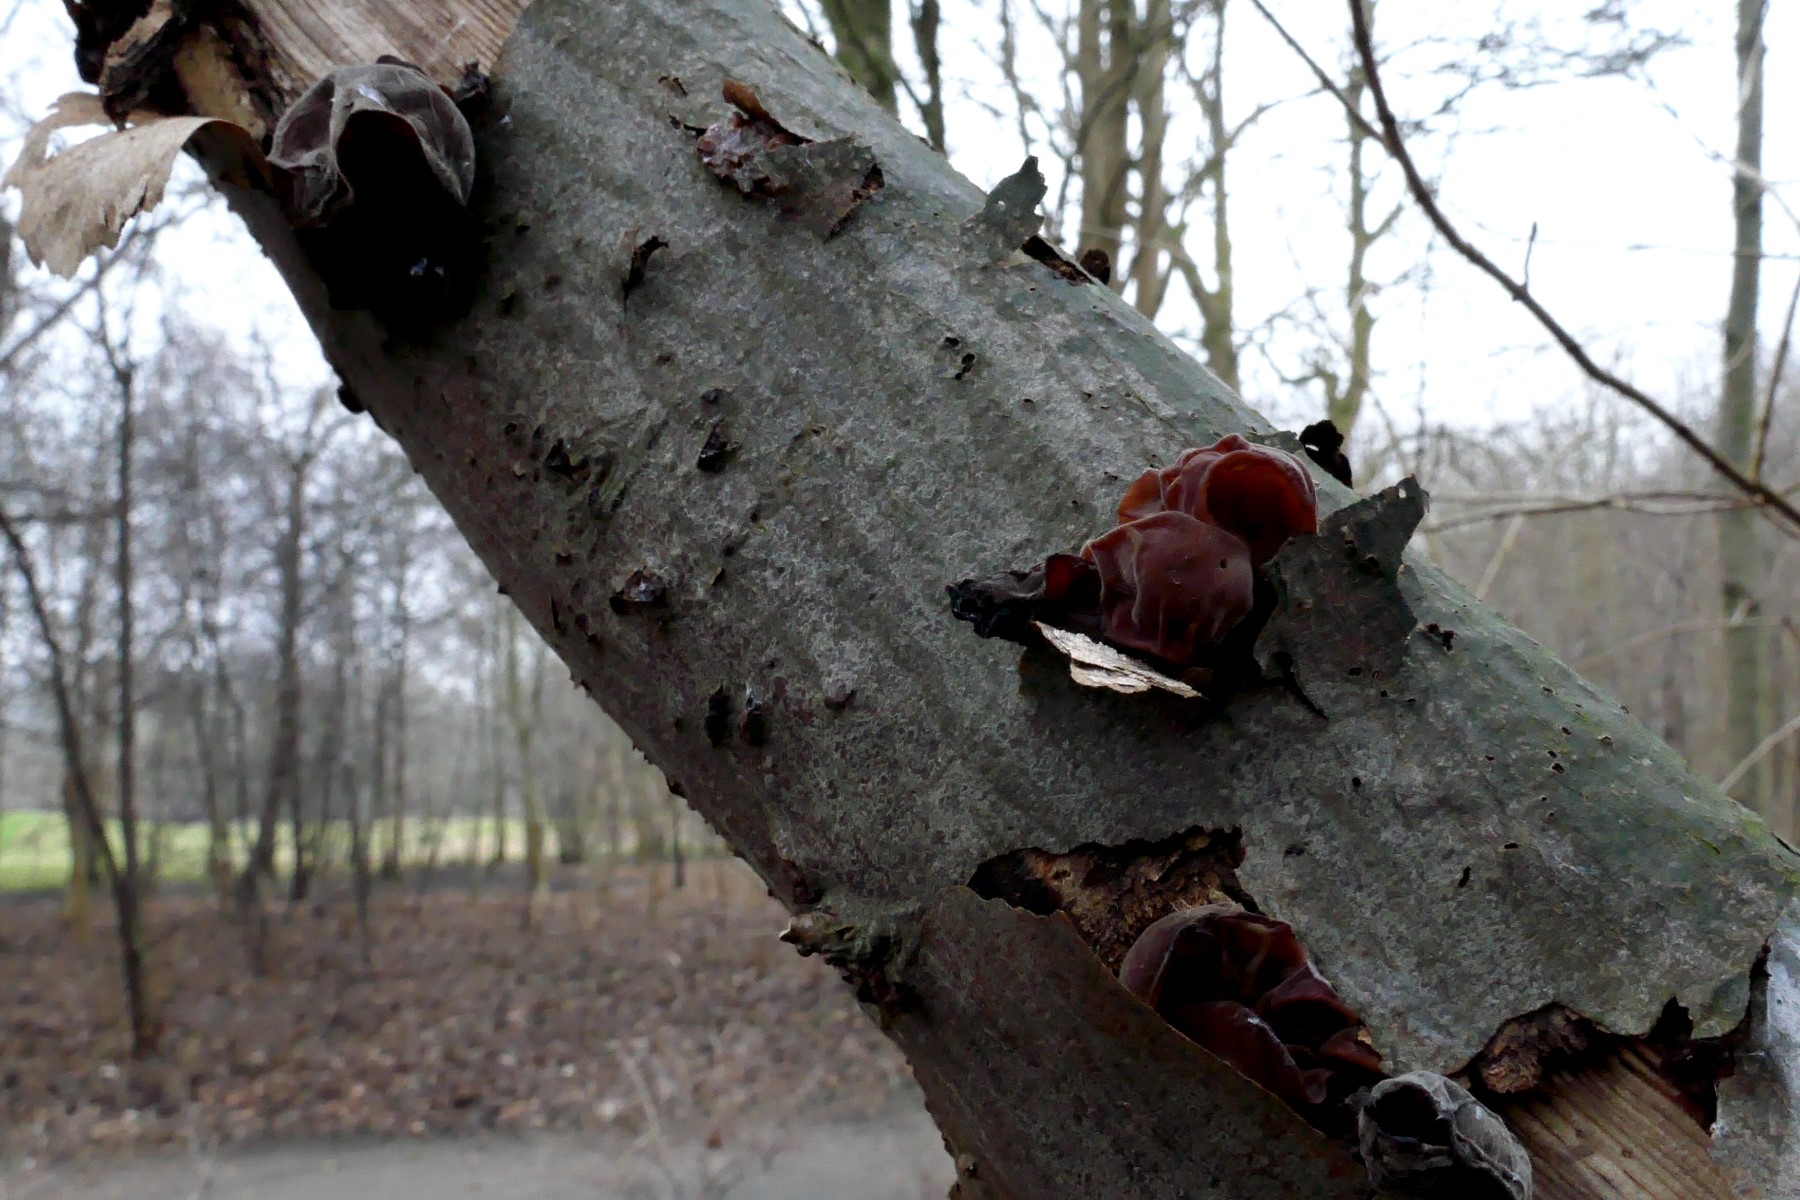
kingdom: Fungi
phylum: Basidiomycota
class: Agaricomycetes
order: Auriculariales
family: Auriculariaceae
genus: Auricularia
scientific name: Auricularia auricula-judae
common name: almindelig judasøre
